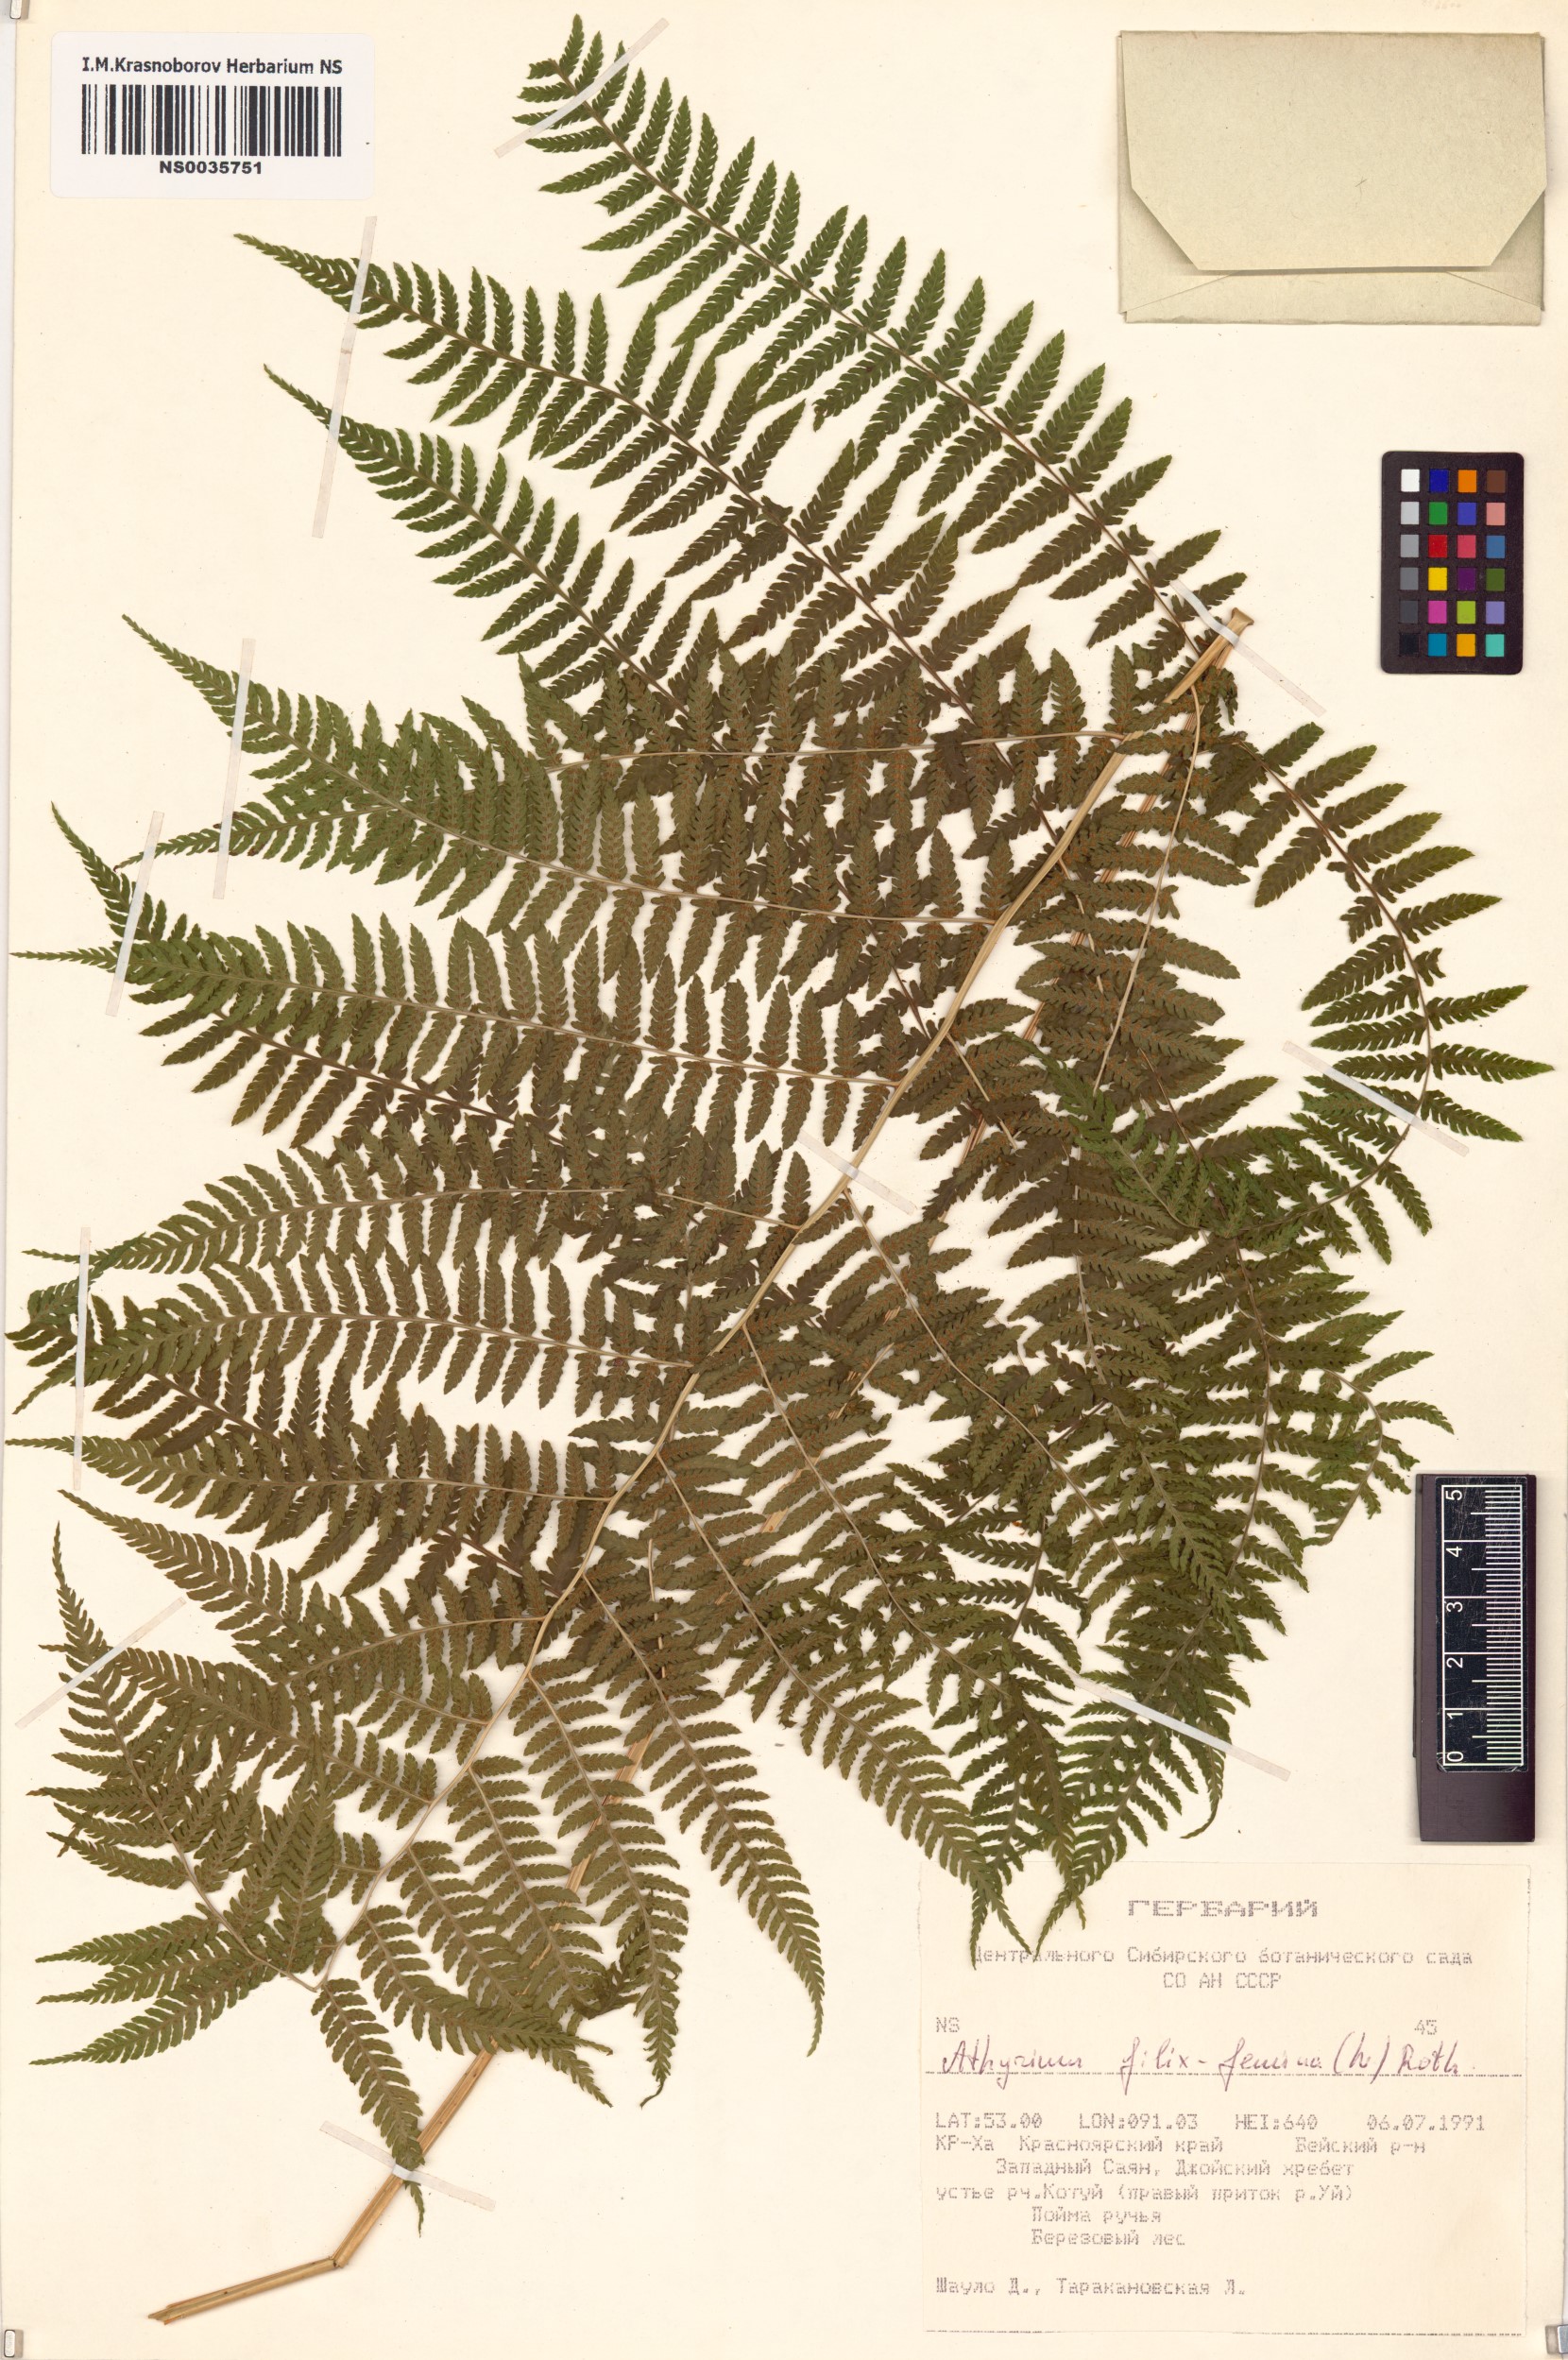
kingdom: Plantae
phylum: Tracheophyta
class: Polypodiopsida
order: Polypodiales
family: Athyriaceae
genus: Athyrium
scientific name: Athyrium filix-femina
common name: Lady fern
